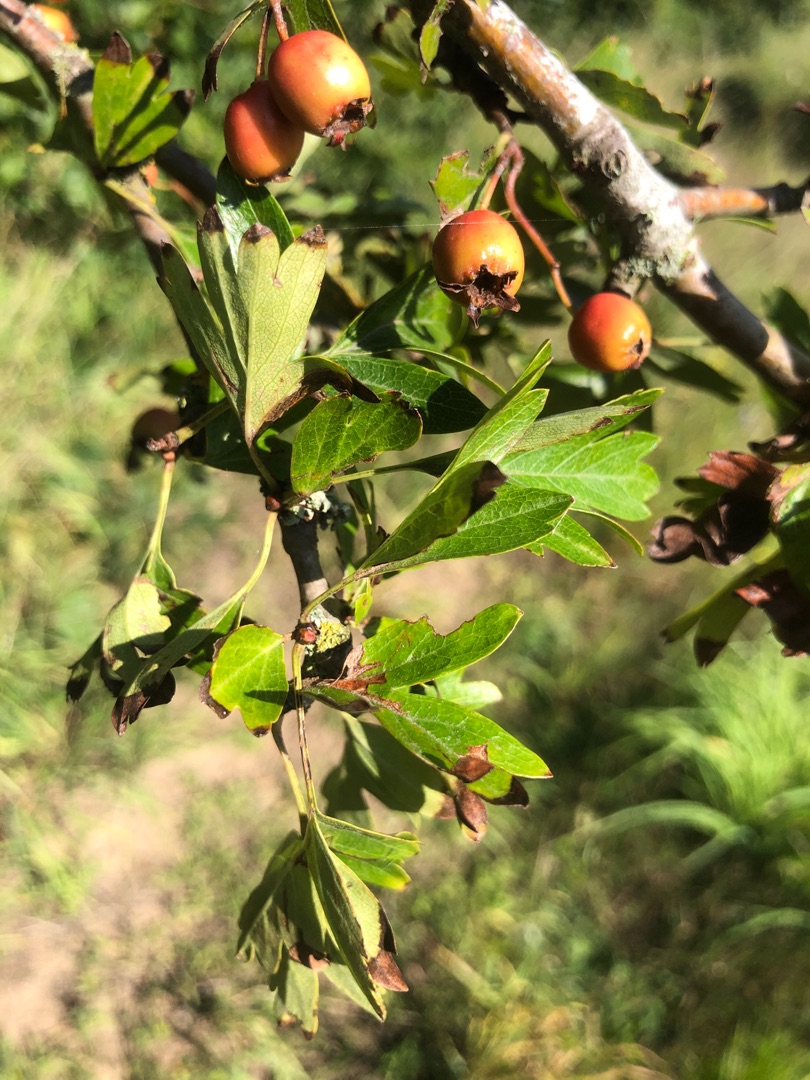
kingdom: Plantae
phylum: Tracheophyta
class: Magnoliopsida
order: Rosales
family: Rosaceae
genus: Crataegus
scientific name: Crataegus monogyna
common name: Engriflet hvidtjørn
